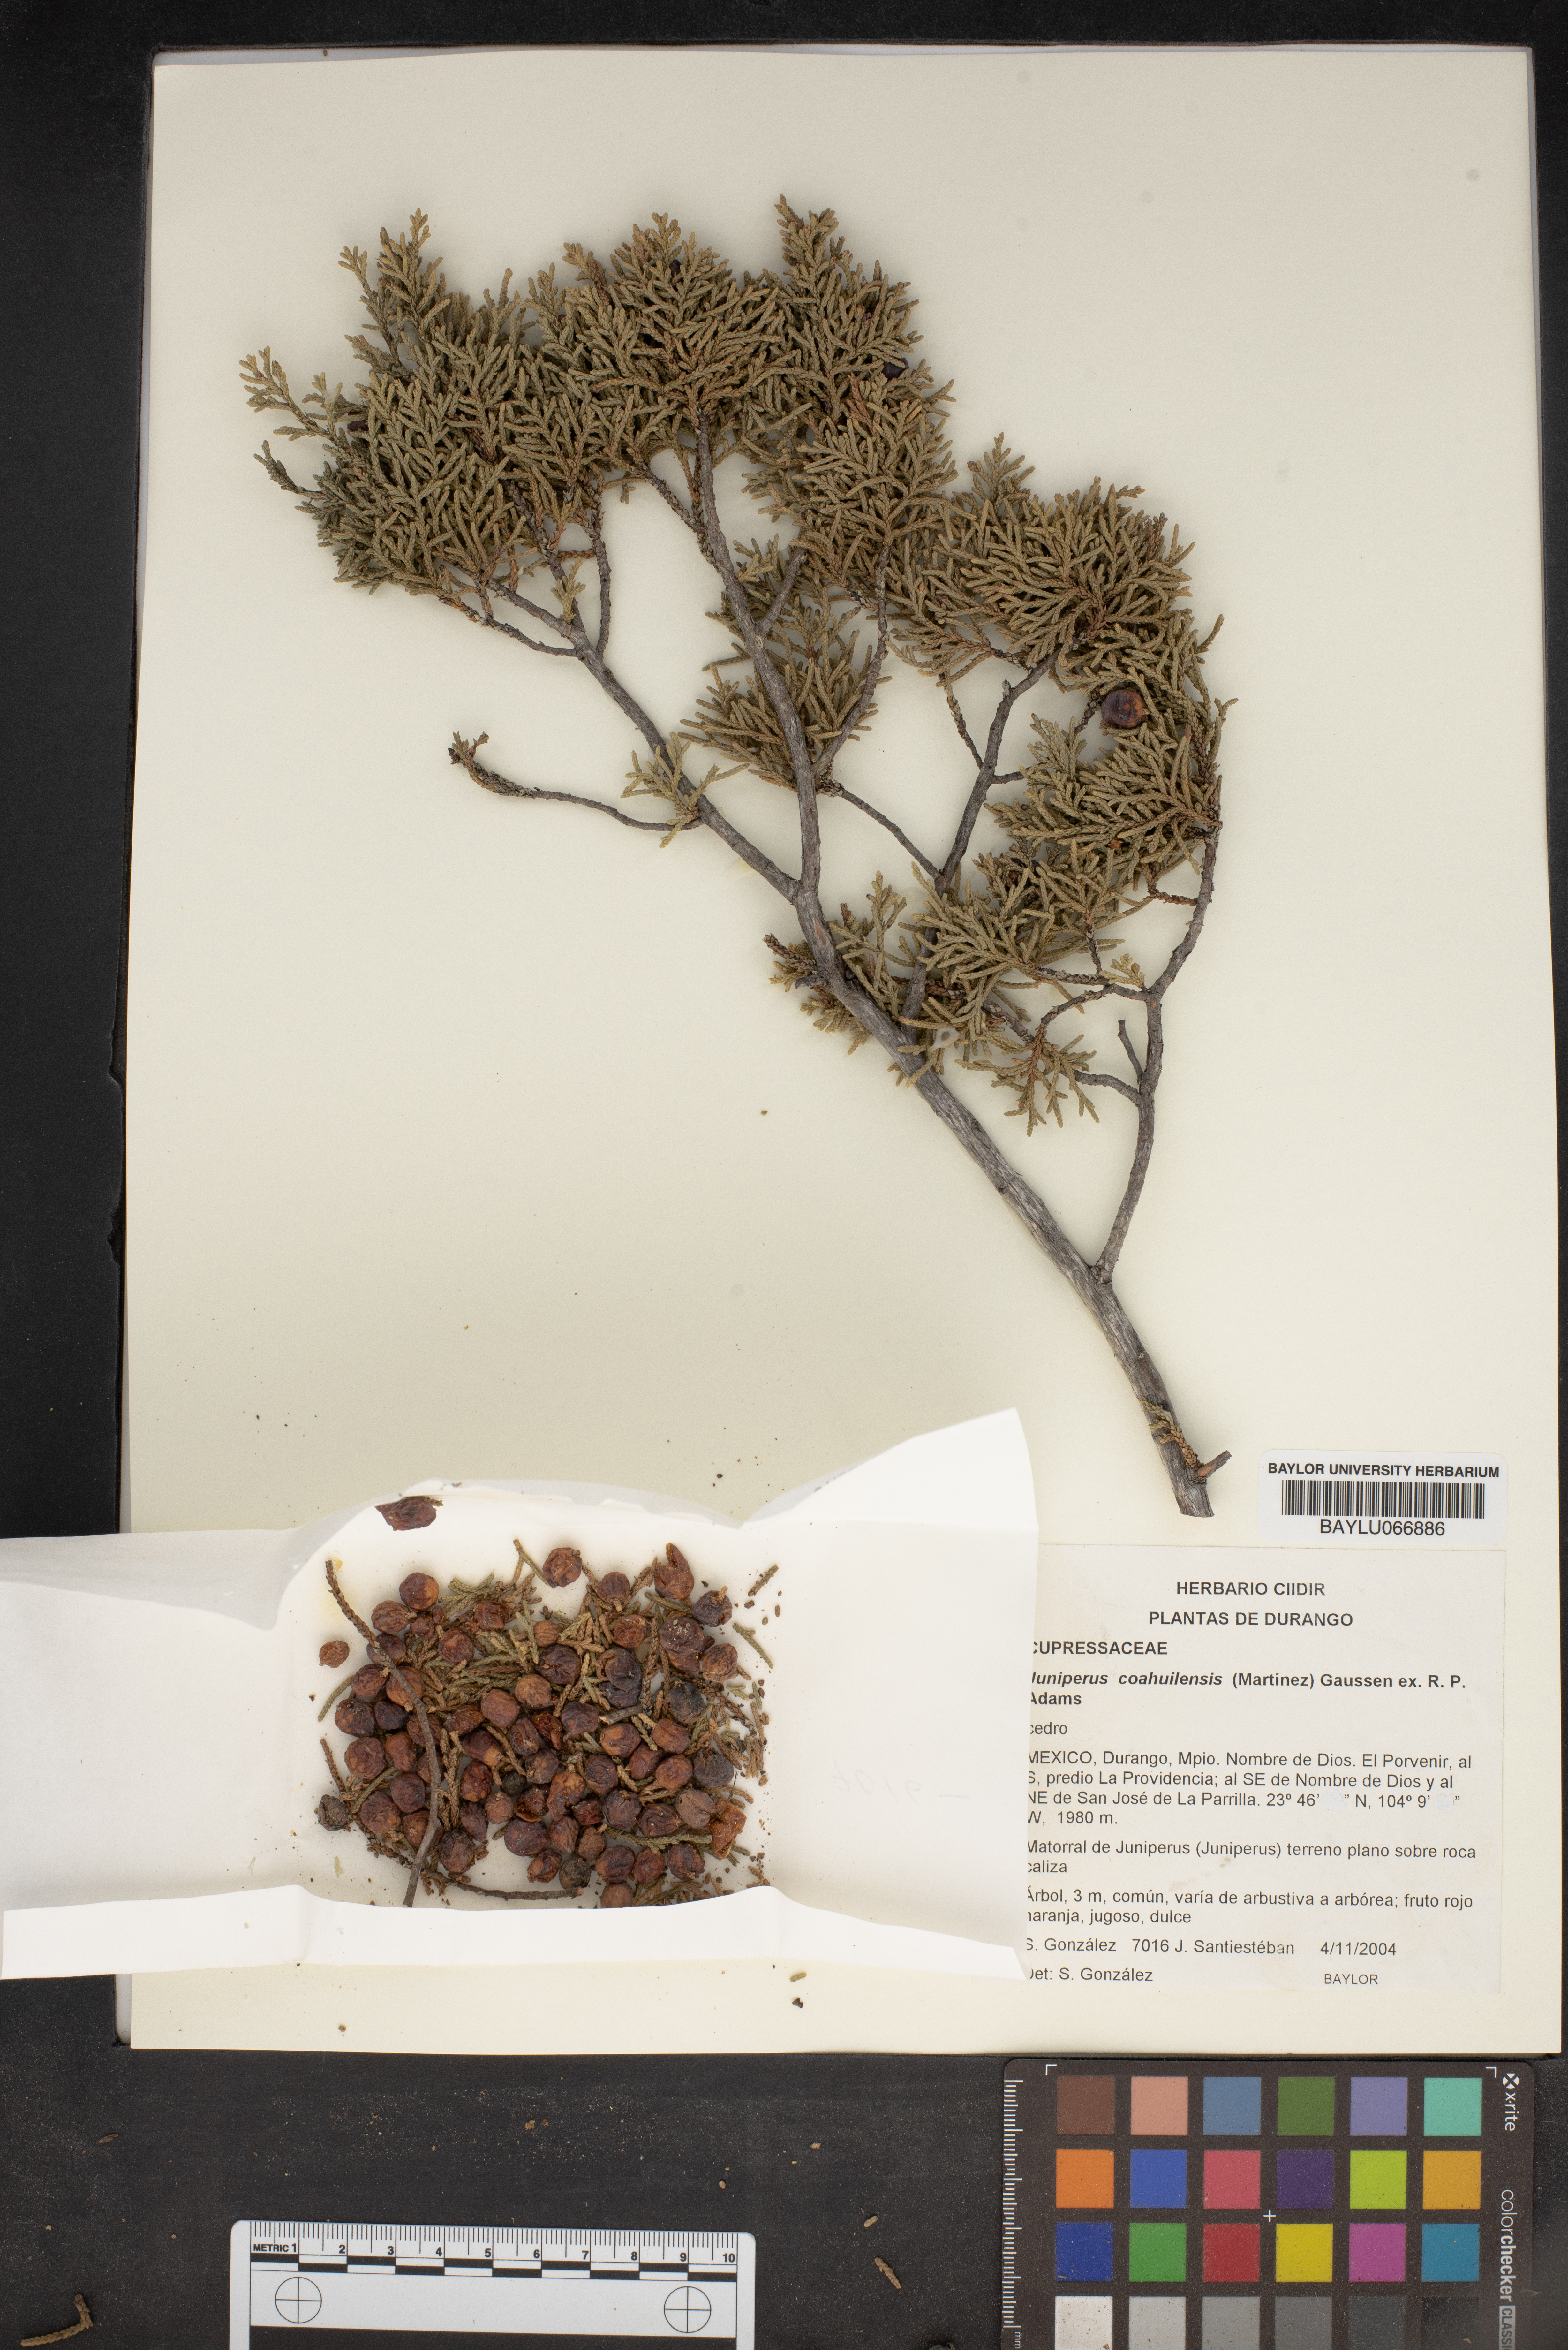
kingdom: Plantae
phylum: Tracheophyta
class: Pinopsida
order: Pinales
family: Cupressaceae
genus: Juniperus
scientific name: Juniperus coahuilensis
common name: Roseberry
